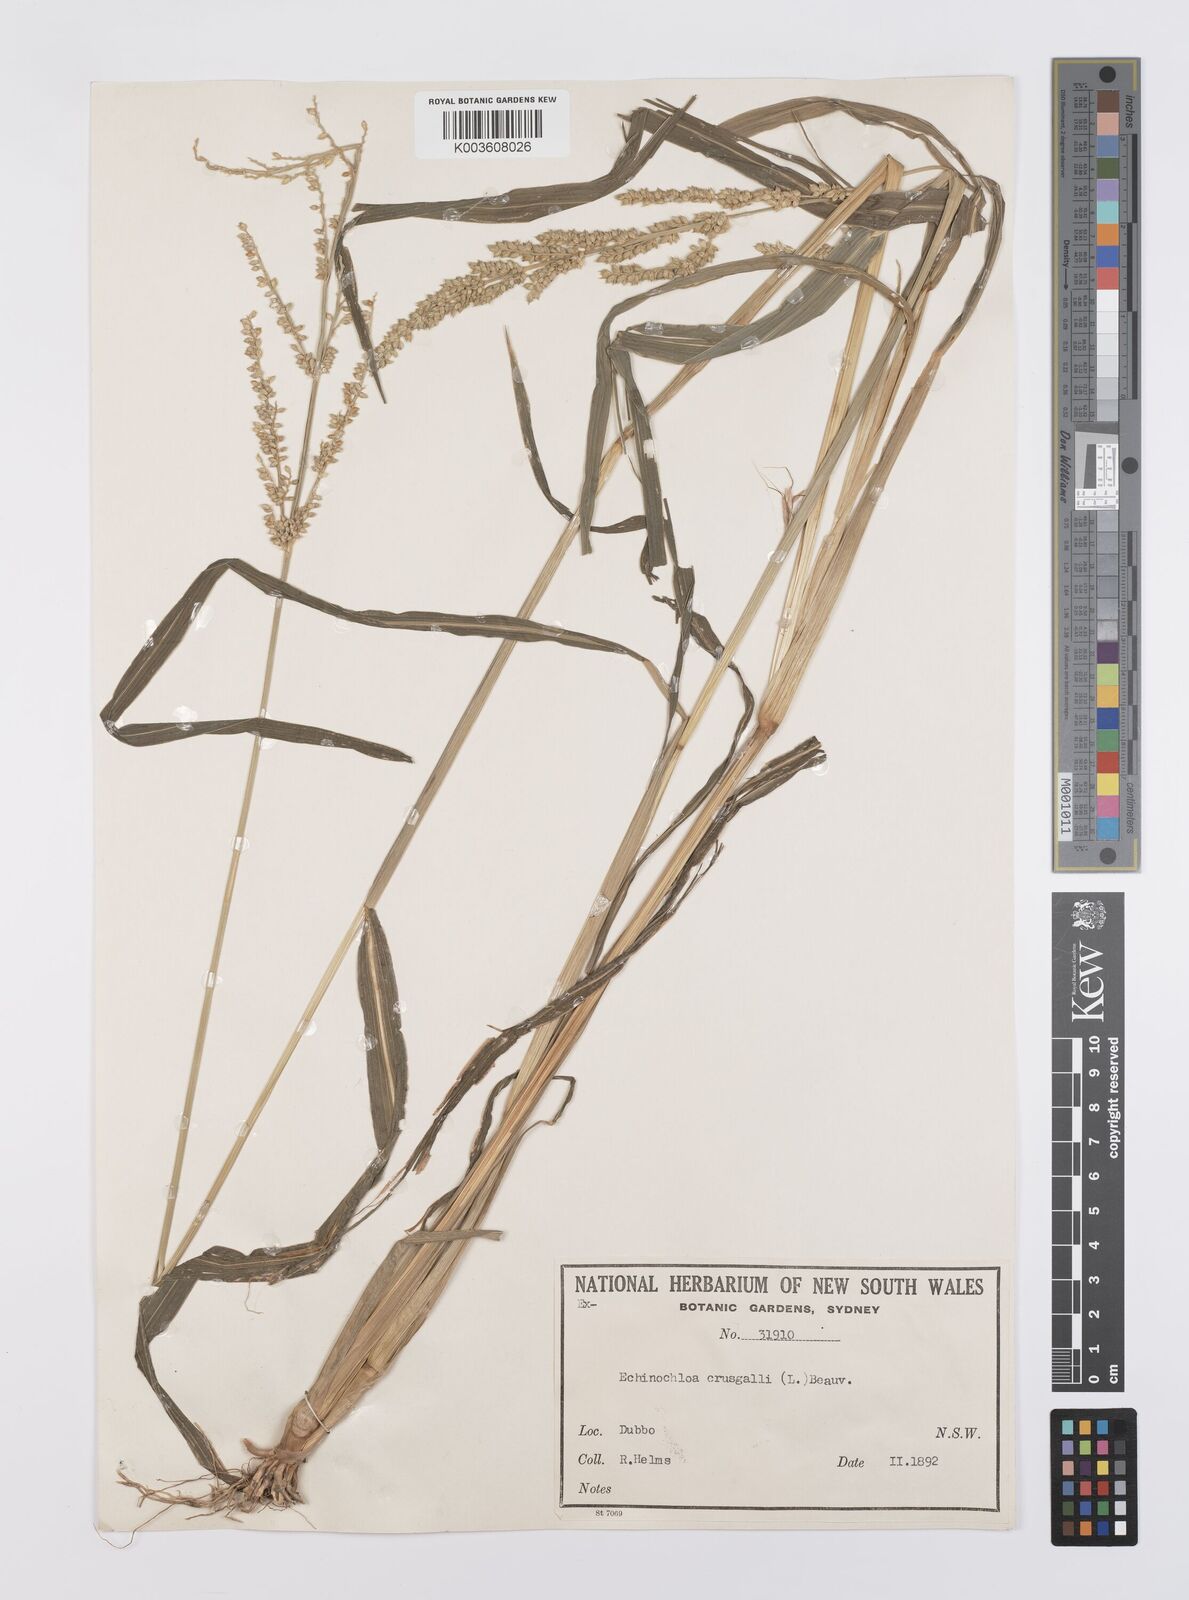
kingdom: Plantae
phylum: Tracheophyta
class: Liliopsida
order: Poales
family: Poaceae
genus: Echinochloa
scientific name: Echinochloa crus-galli
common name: Cockspur
